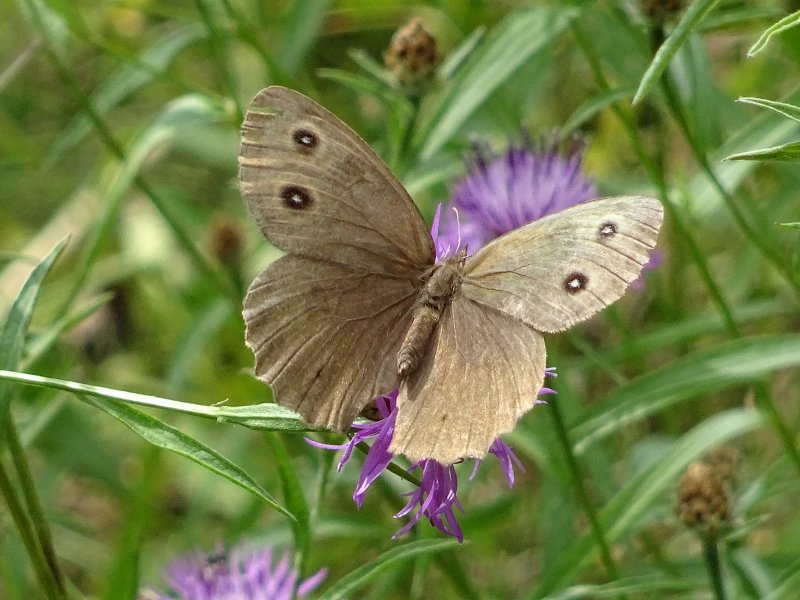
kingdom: Animalia
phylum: Arthropoda
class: Insecta
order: Lepidoptera
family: Nymphalidae
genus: Cercyonis
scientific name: Cercyonis pegala
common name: Common Wood-Nymph
